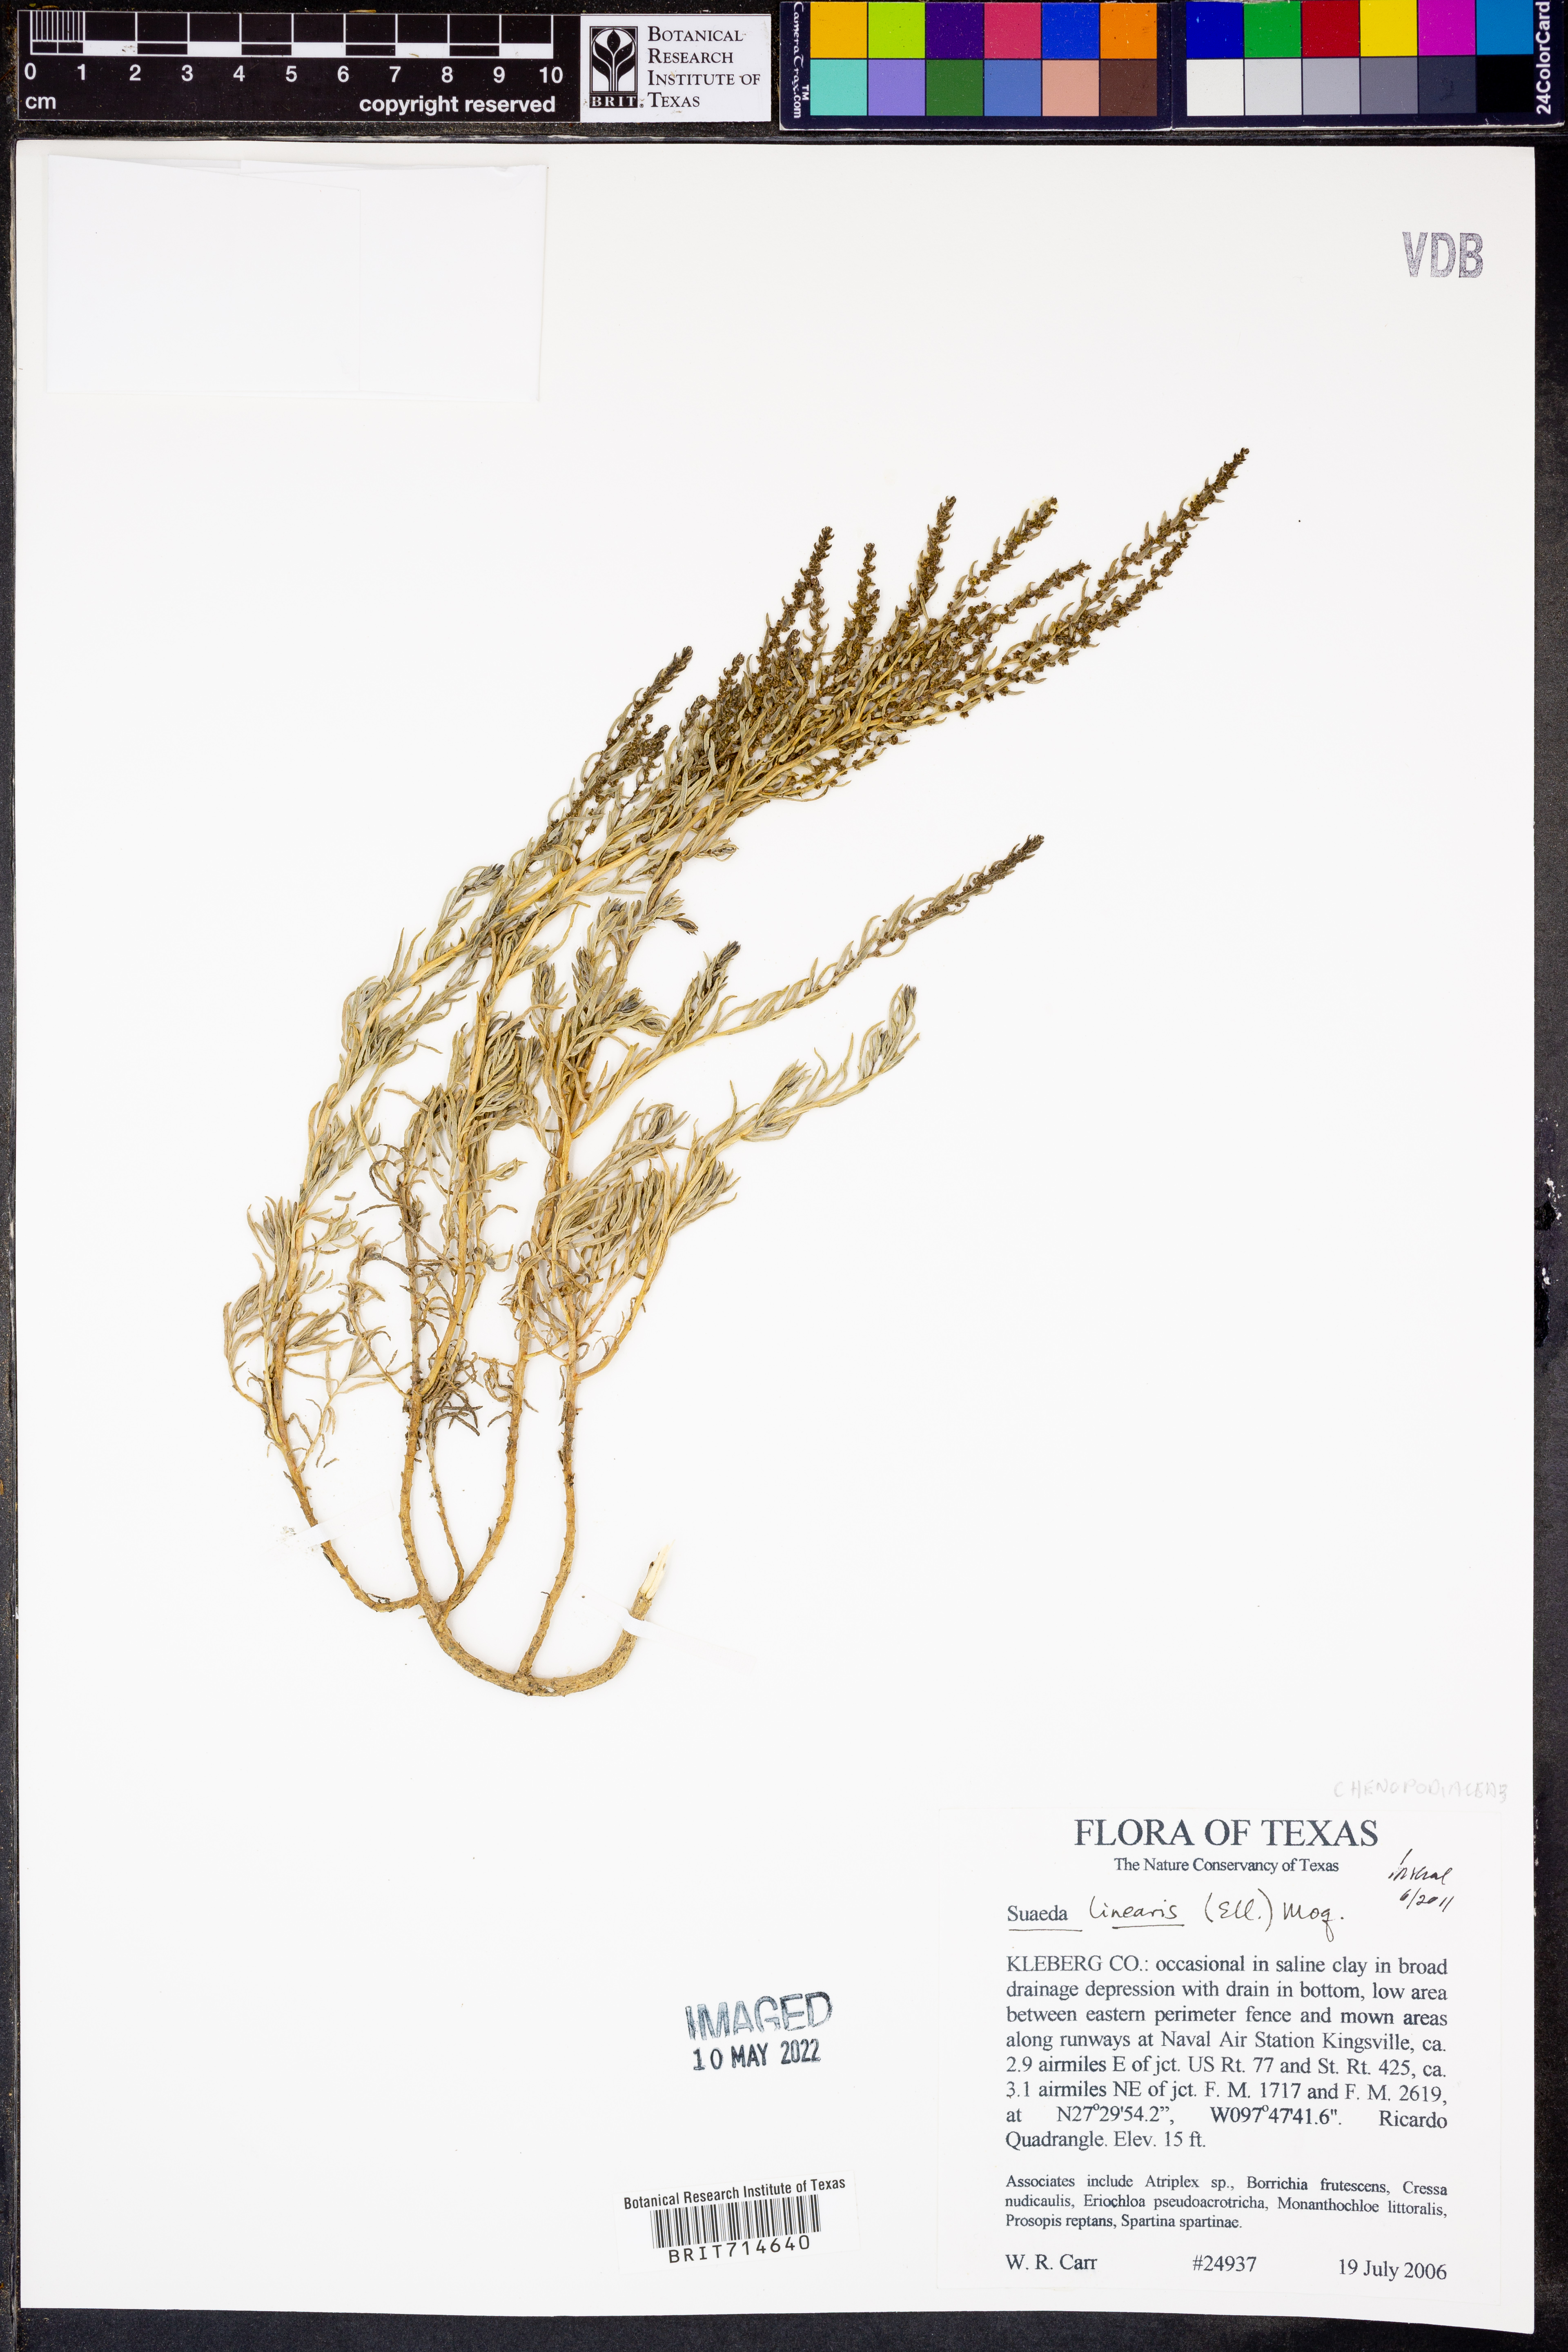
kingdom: Plantae
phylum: Tracheophyta
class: Magnoliopsida
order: Caryophyllales
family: Amaranthaceae
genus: Suaeda
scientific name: Suaeda linearis
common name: Annual seepweed
